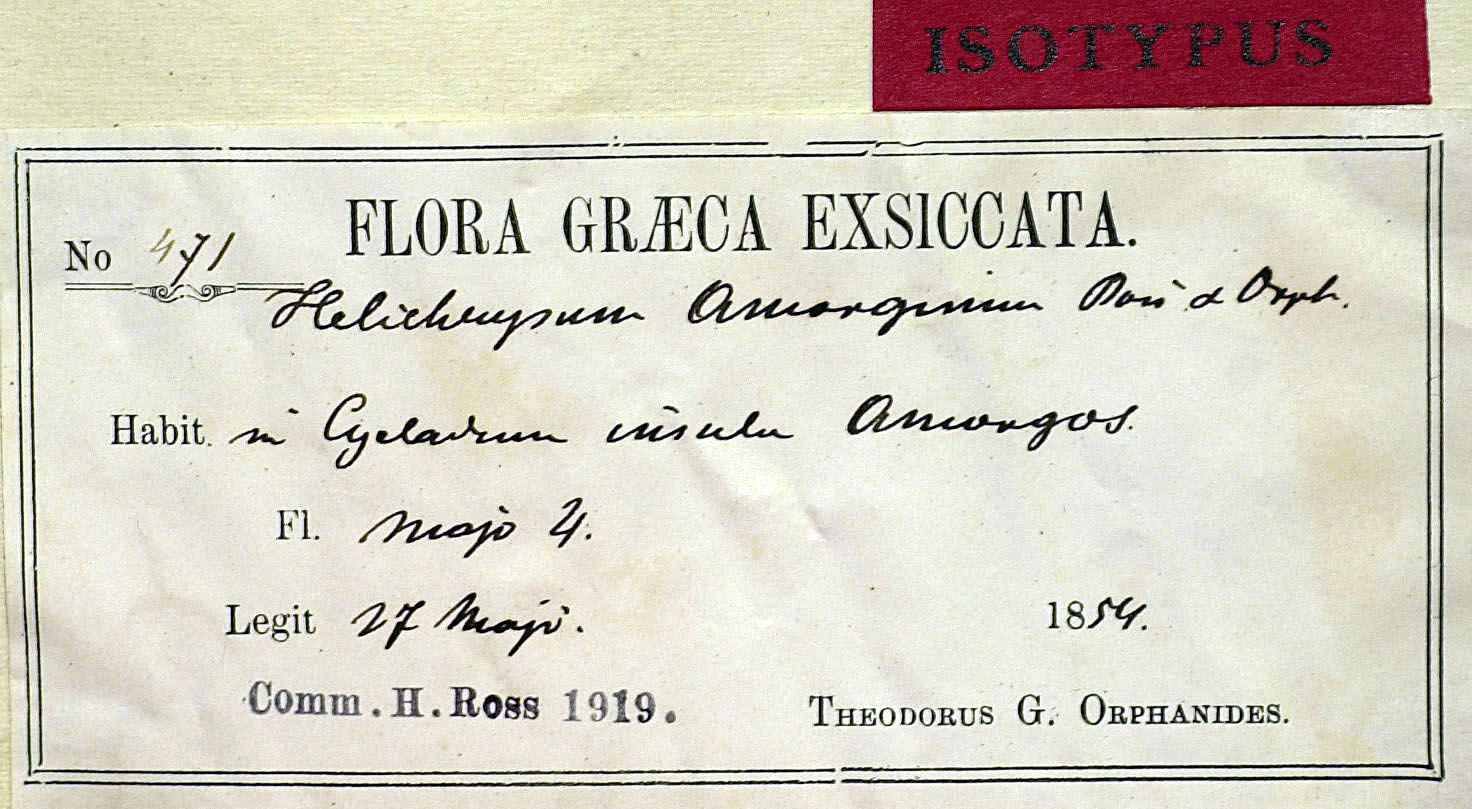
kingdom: Plantae
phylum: Tracheophyta
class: Magnoliopsida
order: Asterales
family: Asteraceae
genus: Helichrysum
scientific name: Helichrysum amorginum
